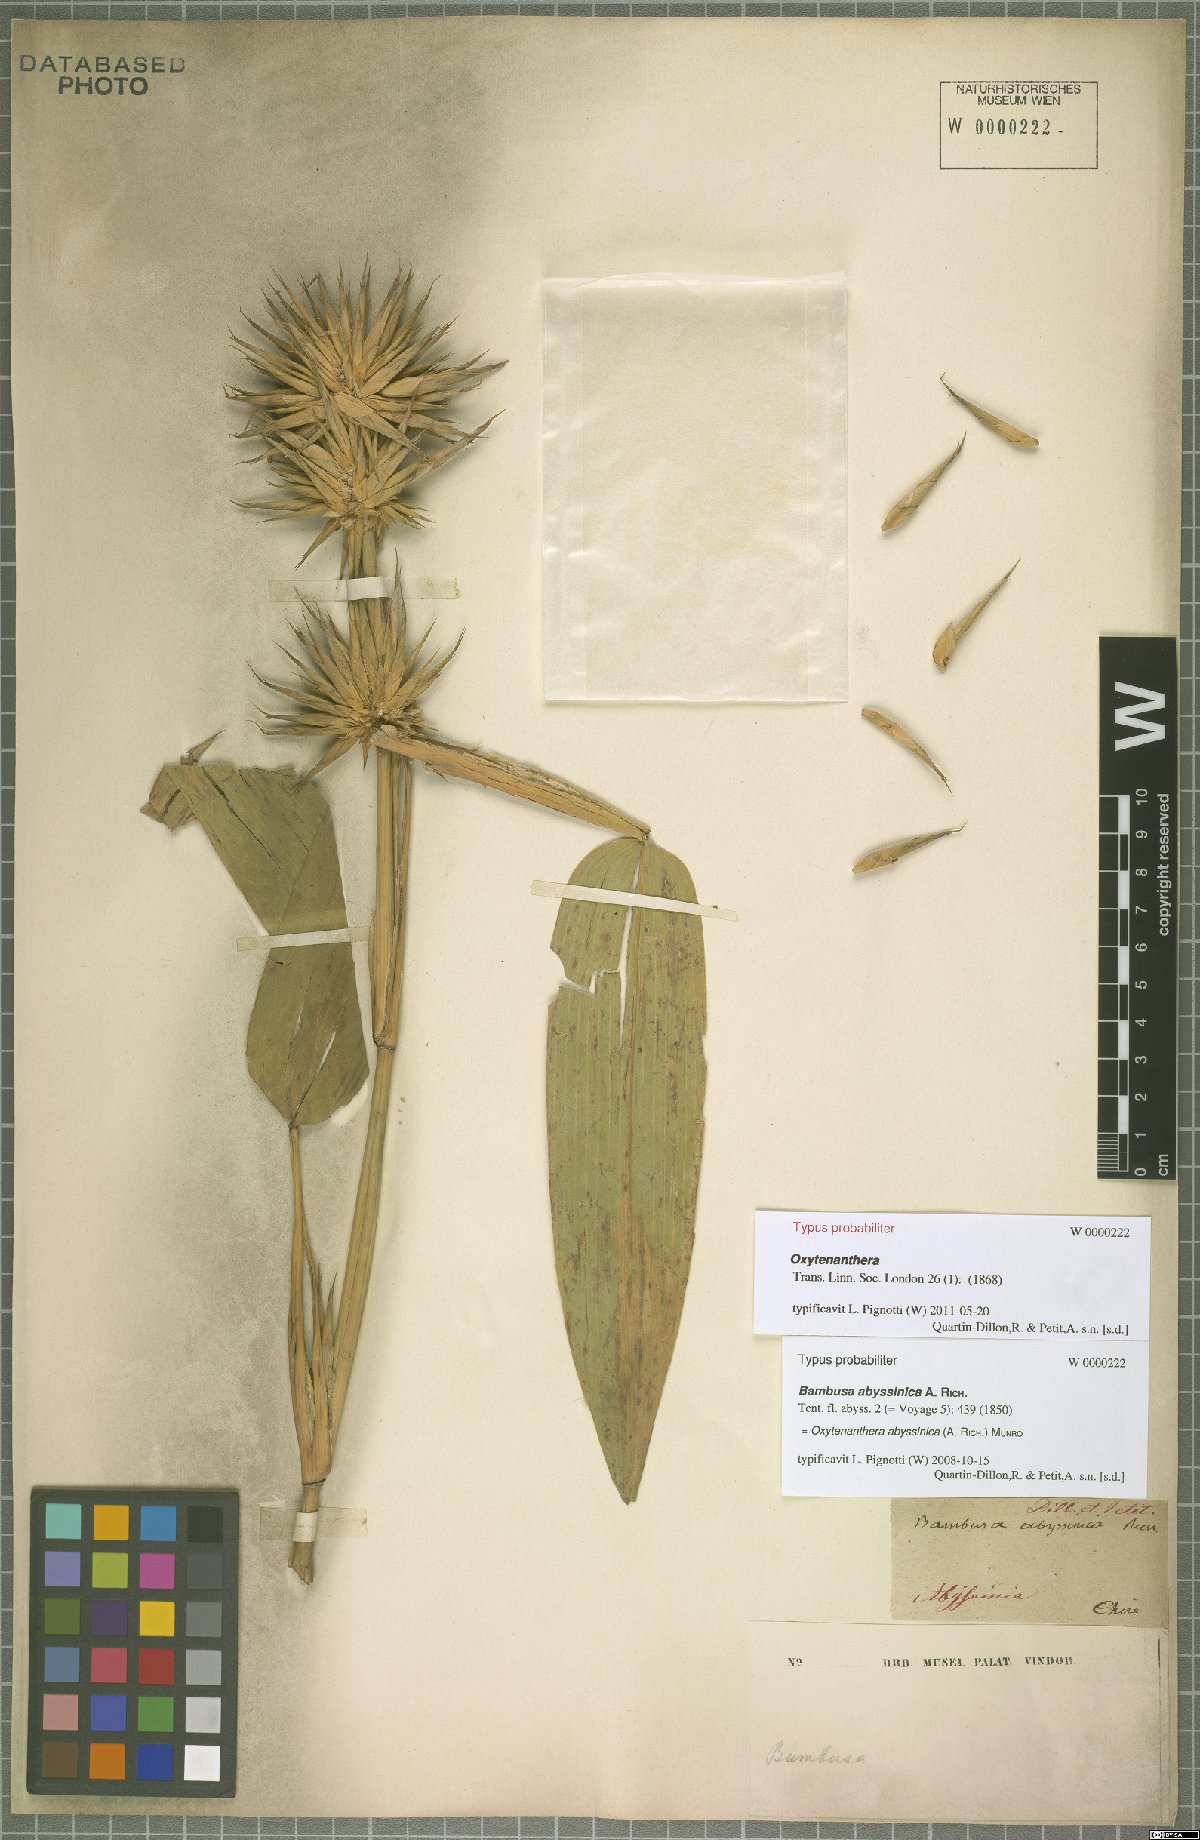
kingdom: Plantae
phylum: Tracheophyta
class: Liliopsida
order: Poales
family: Poaceae
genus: Oxytenanthera
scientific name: Oxytenanthera abyssinica
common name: Wine bamboo
